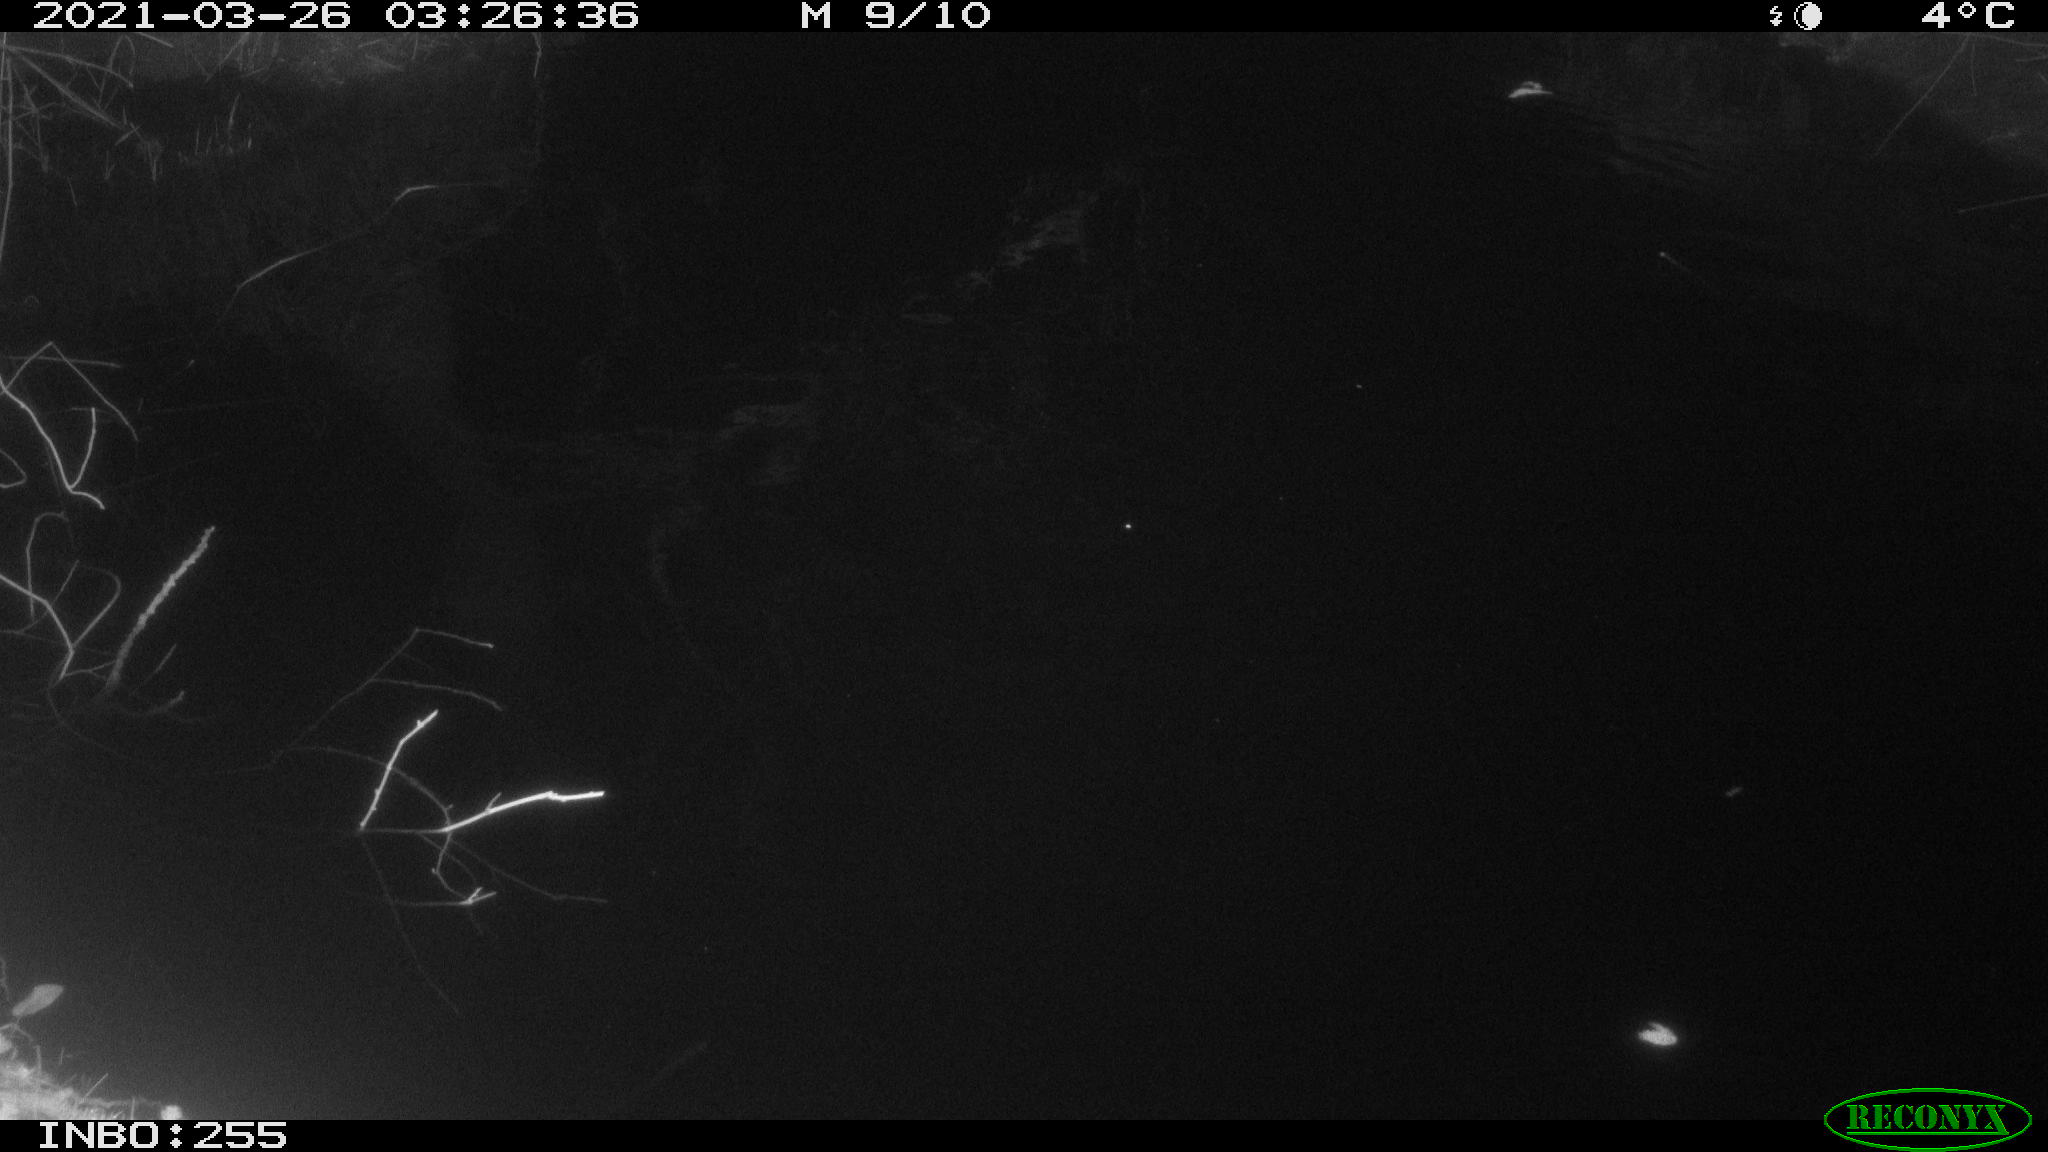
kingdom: Animalia
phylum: Chordata
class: Aves
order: Anseriformes
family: Anatidae
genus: Anas
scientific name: Anas platyrhynchos
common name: Mallard
